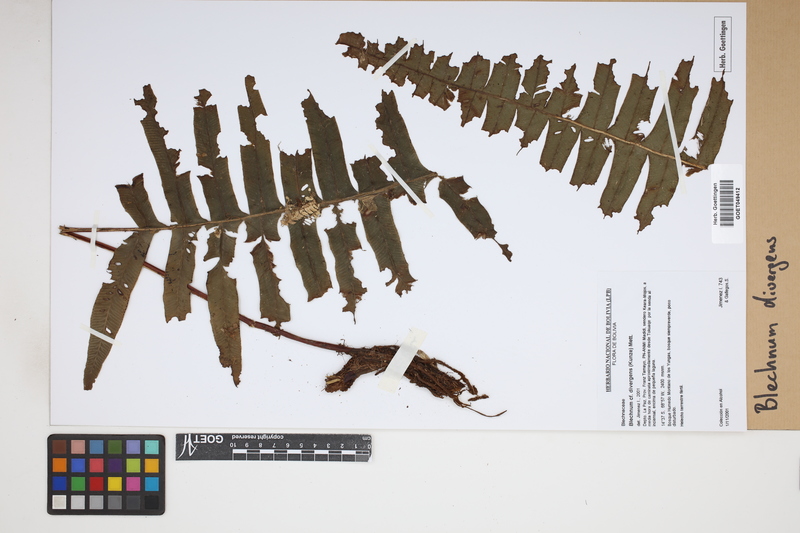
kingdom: Plantae
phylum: Tracheophyta
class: Polypodiopsida
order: Polypodiales
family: Blechnaceae
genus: Austroblechnum
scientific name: Austroblechnum divergens
